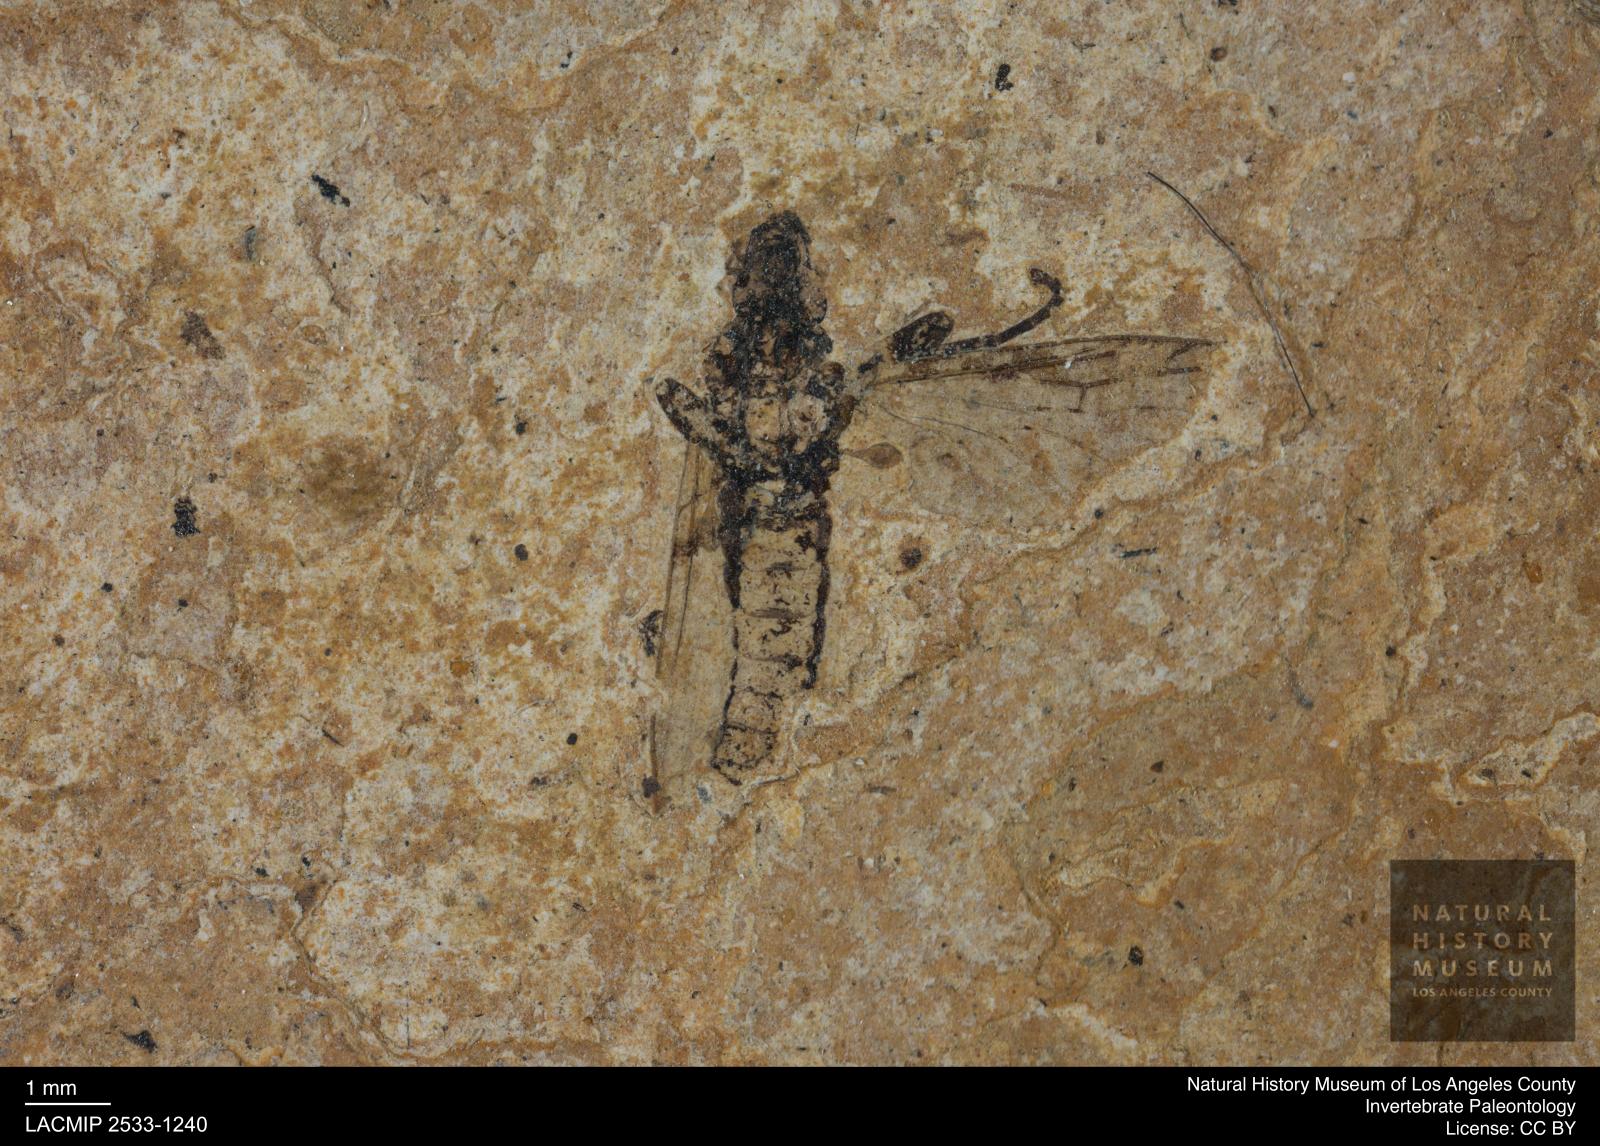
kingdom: Animalia
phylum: Arthropoda
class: Insecta
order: Diptera
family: Bibionidae
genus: Plecia
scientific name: Plecia
